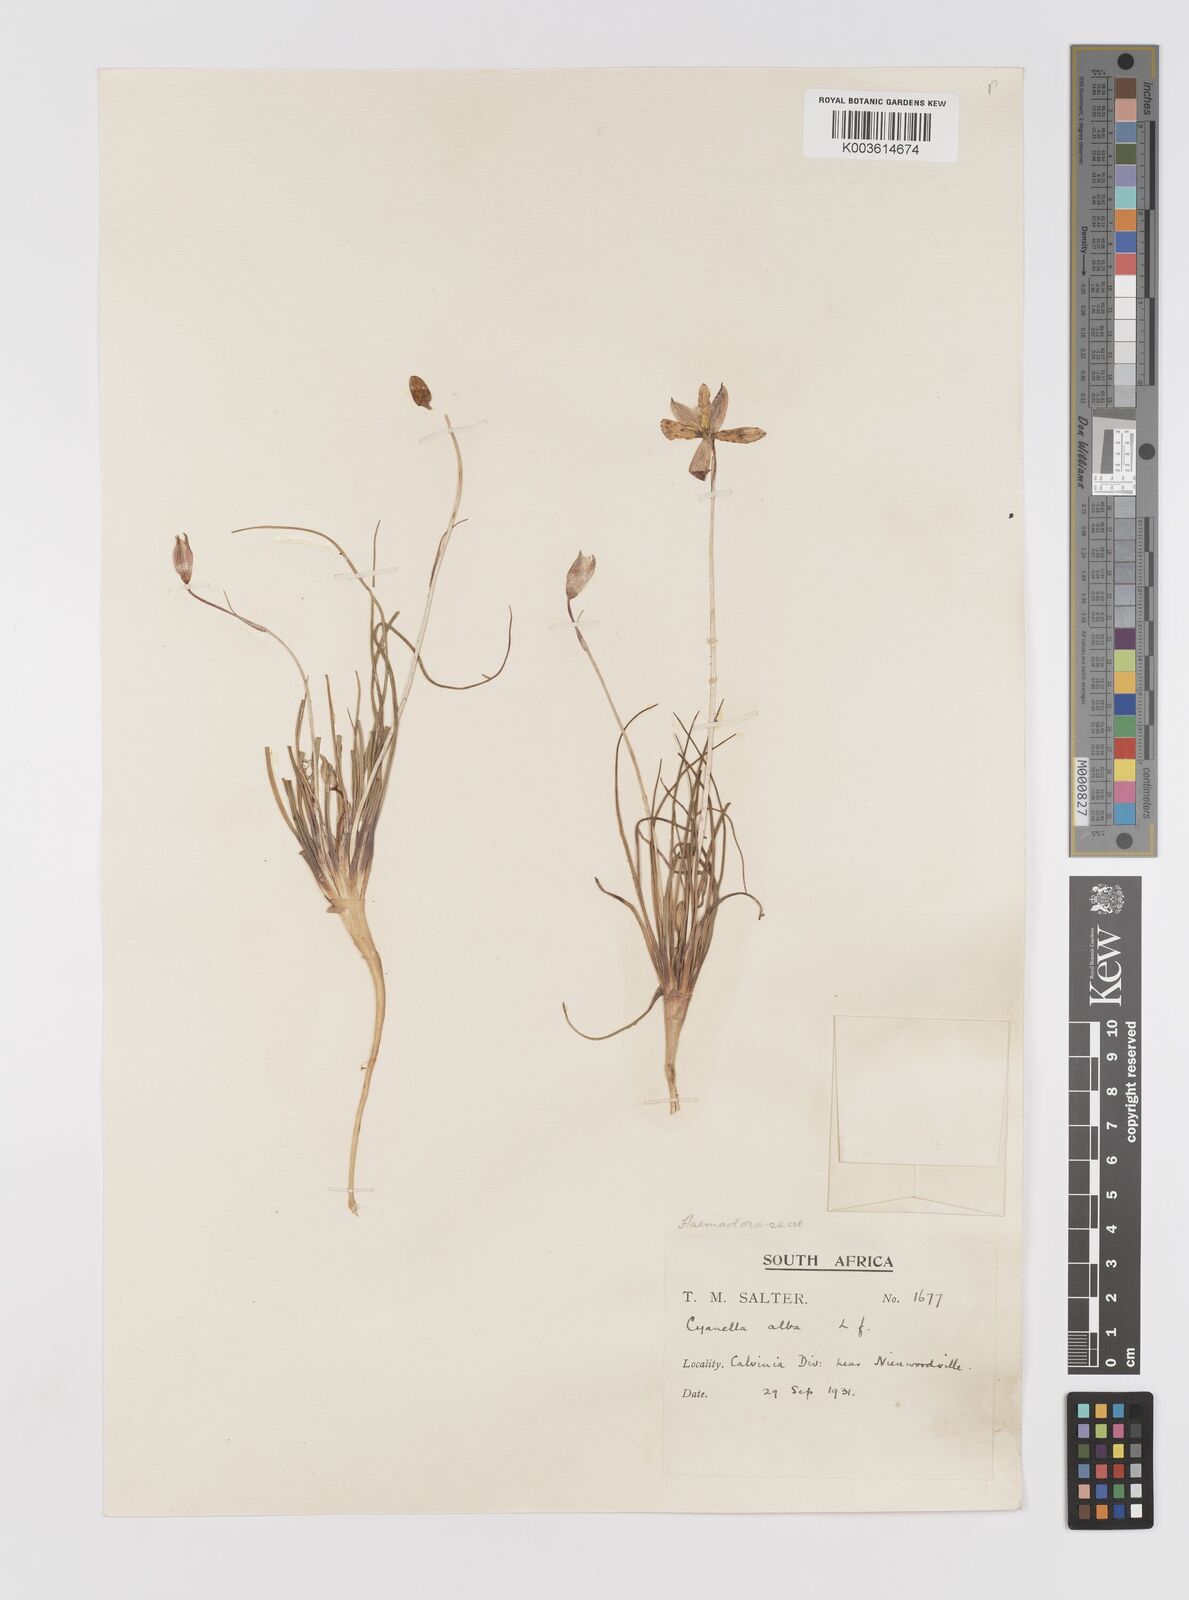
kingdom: Plantae
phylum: Tracheophyta
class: Liliopsida
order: Asparagales
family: Tecophilaeaceae
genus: Cyanella
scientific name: Cyanella alba
